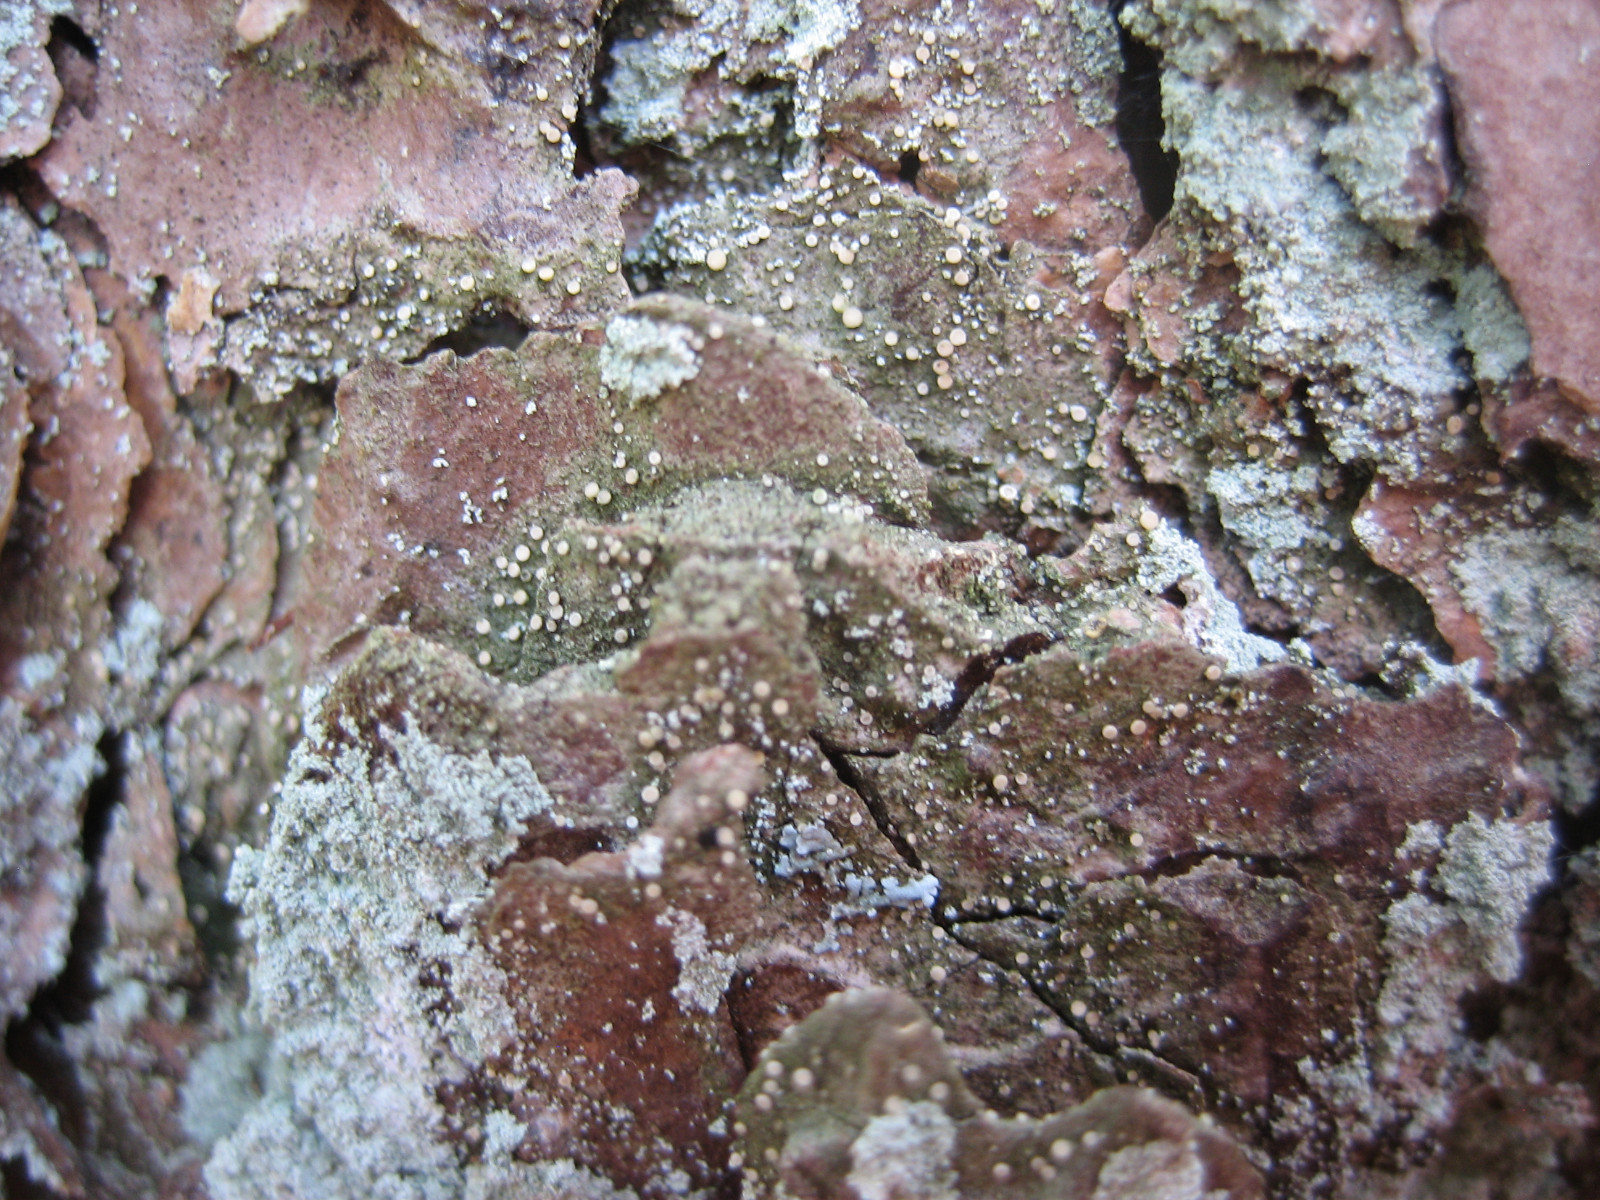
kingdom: Fungi
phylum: Ascomycota
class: Lecanoromycetes
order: Ostropales
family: Coenogoniaceae
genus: Coenogonium
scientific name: Coenogonium pineti
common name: liden vokslav
